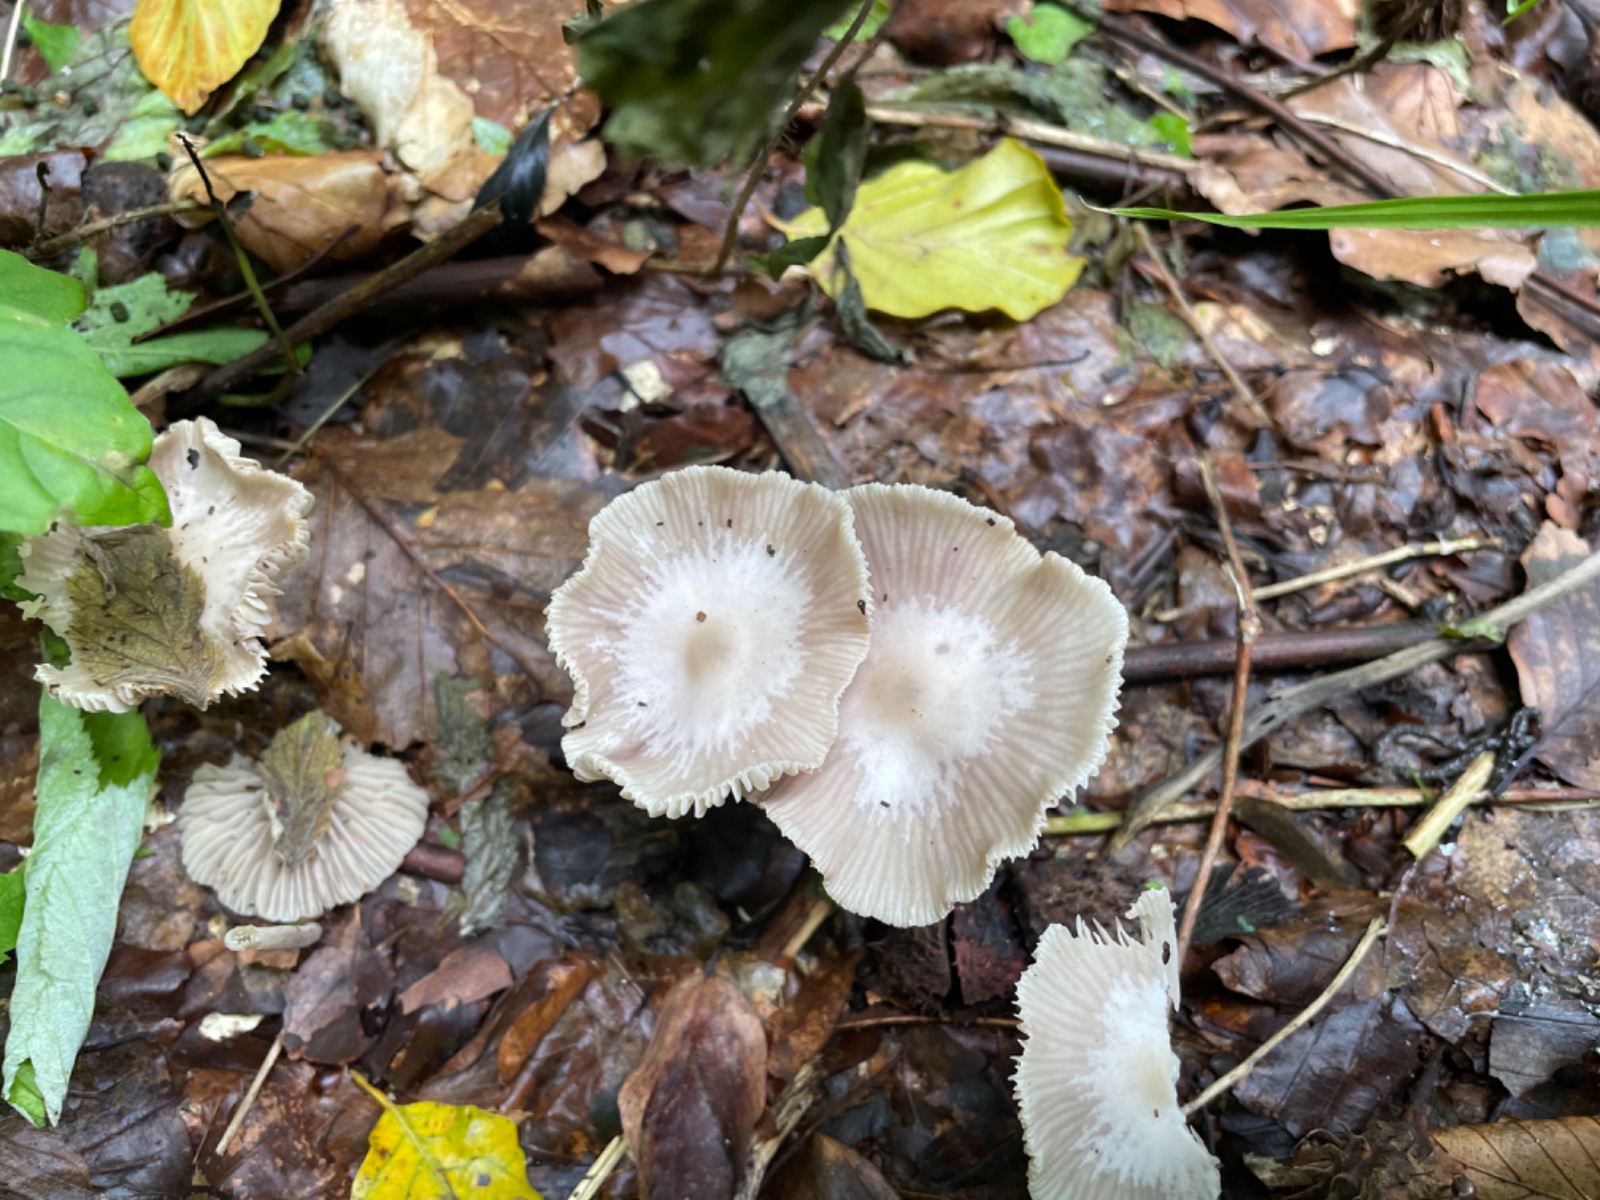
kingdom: Fungi
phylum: Basidiomycota
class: Agaricomycetes
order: Agaricales
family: Marasmiaceae
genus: Marasmius
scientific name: Marasmius wynneae
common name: hvælvet bruskhat
